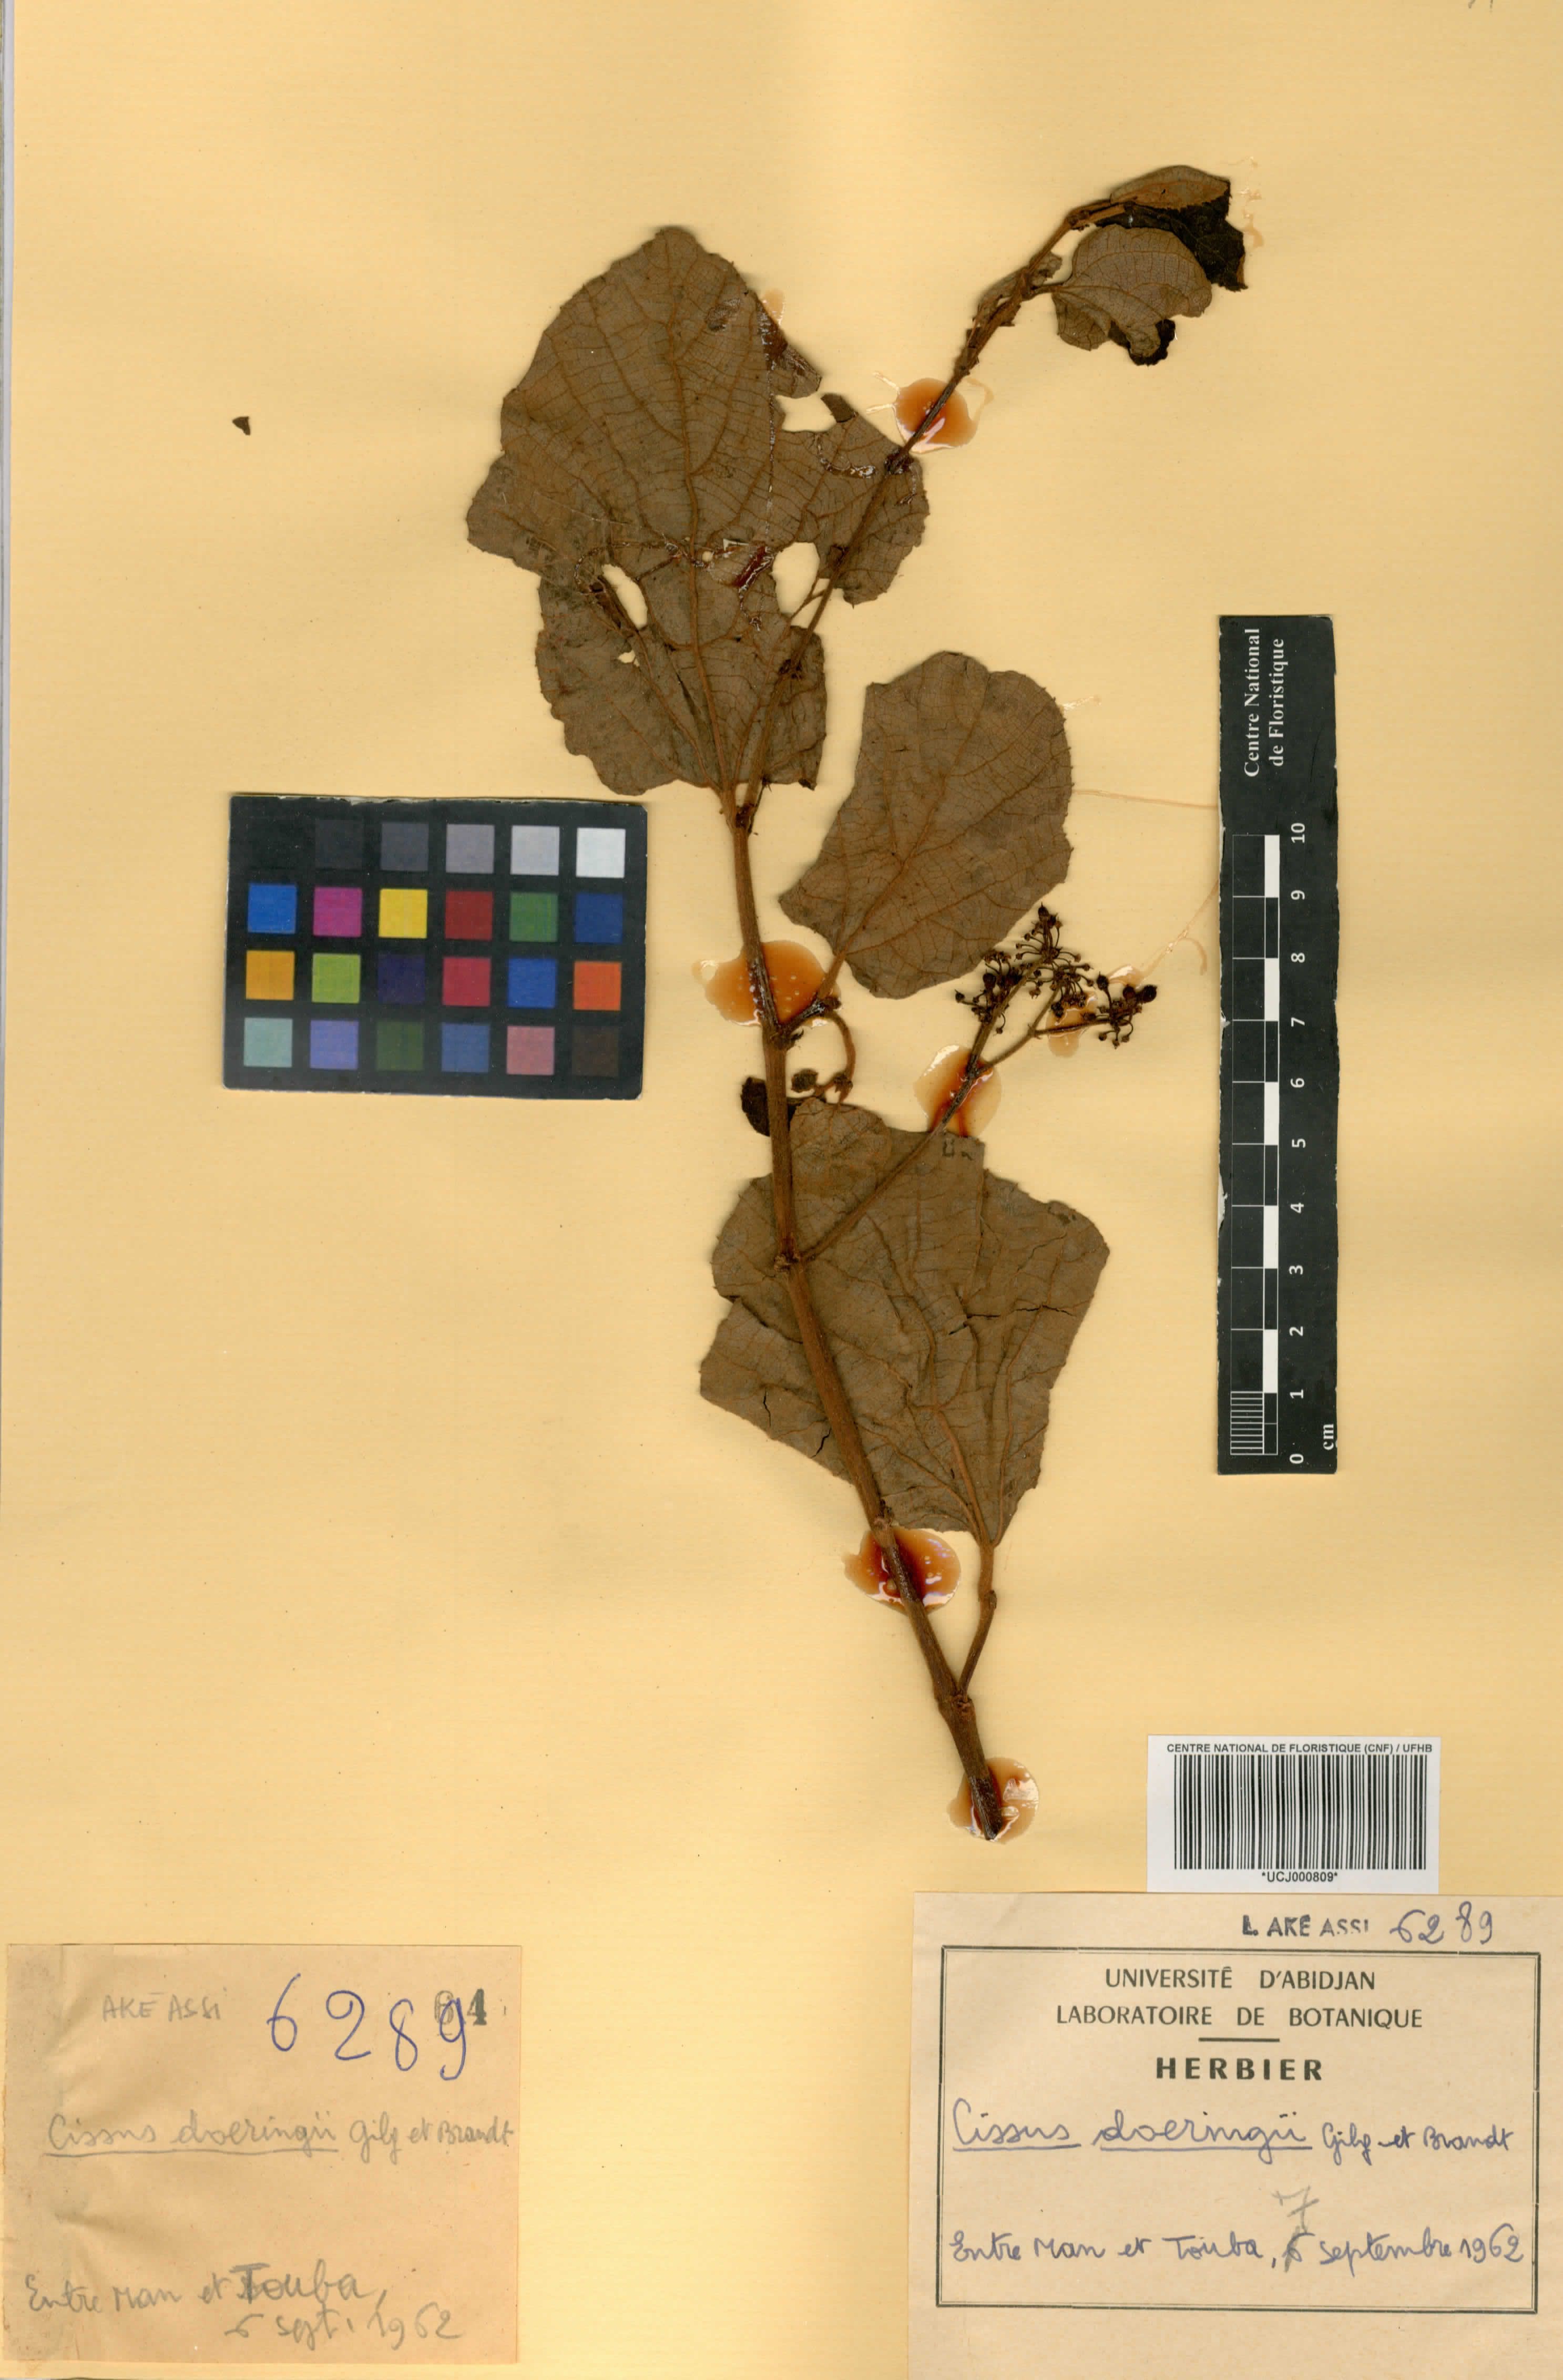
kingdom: Plantae
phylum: Tracheophyta
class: Magnoliopsida
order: Vitales
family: Vitaceae
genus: Cissus
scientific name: Cissus doeringii
